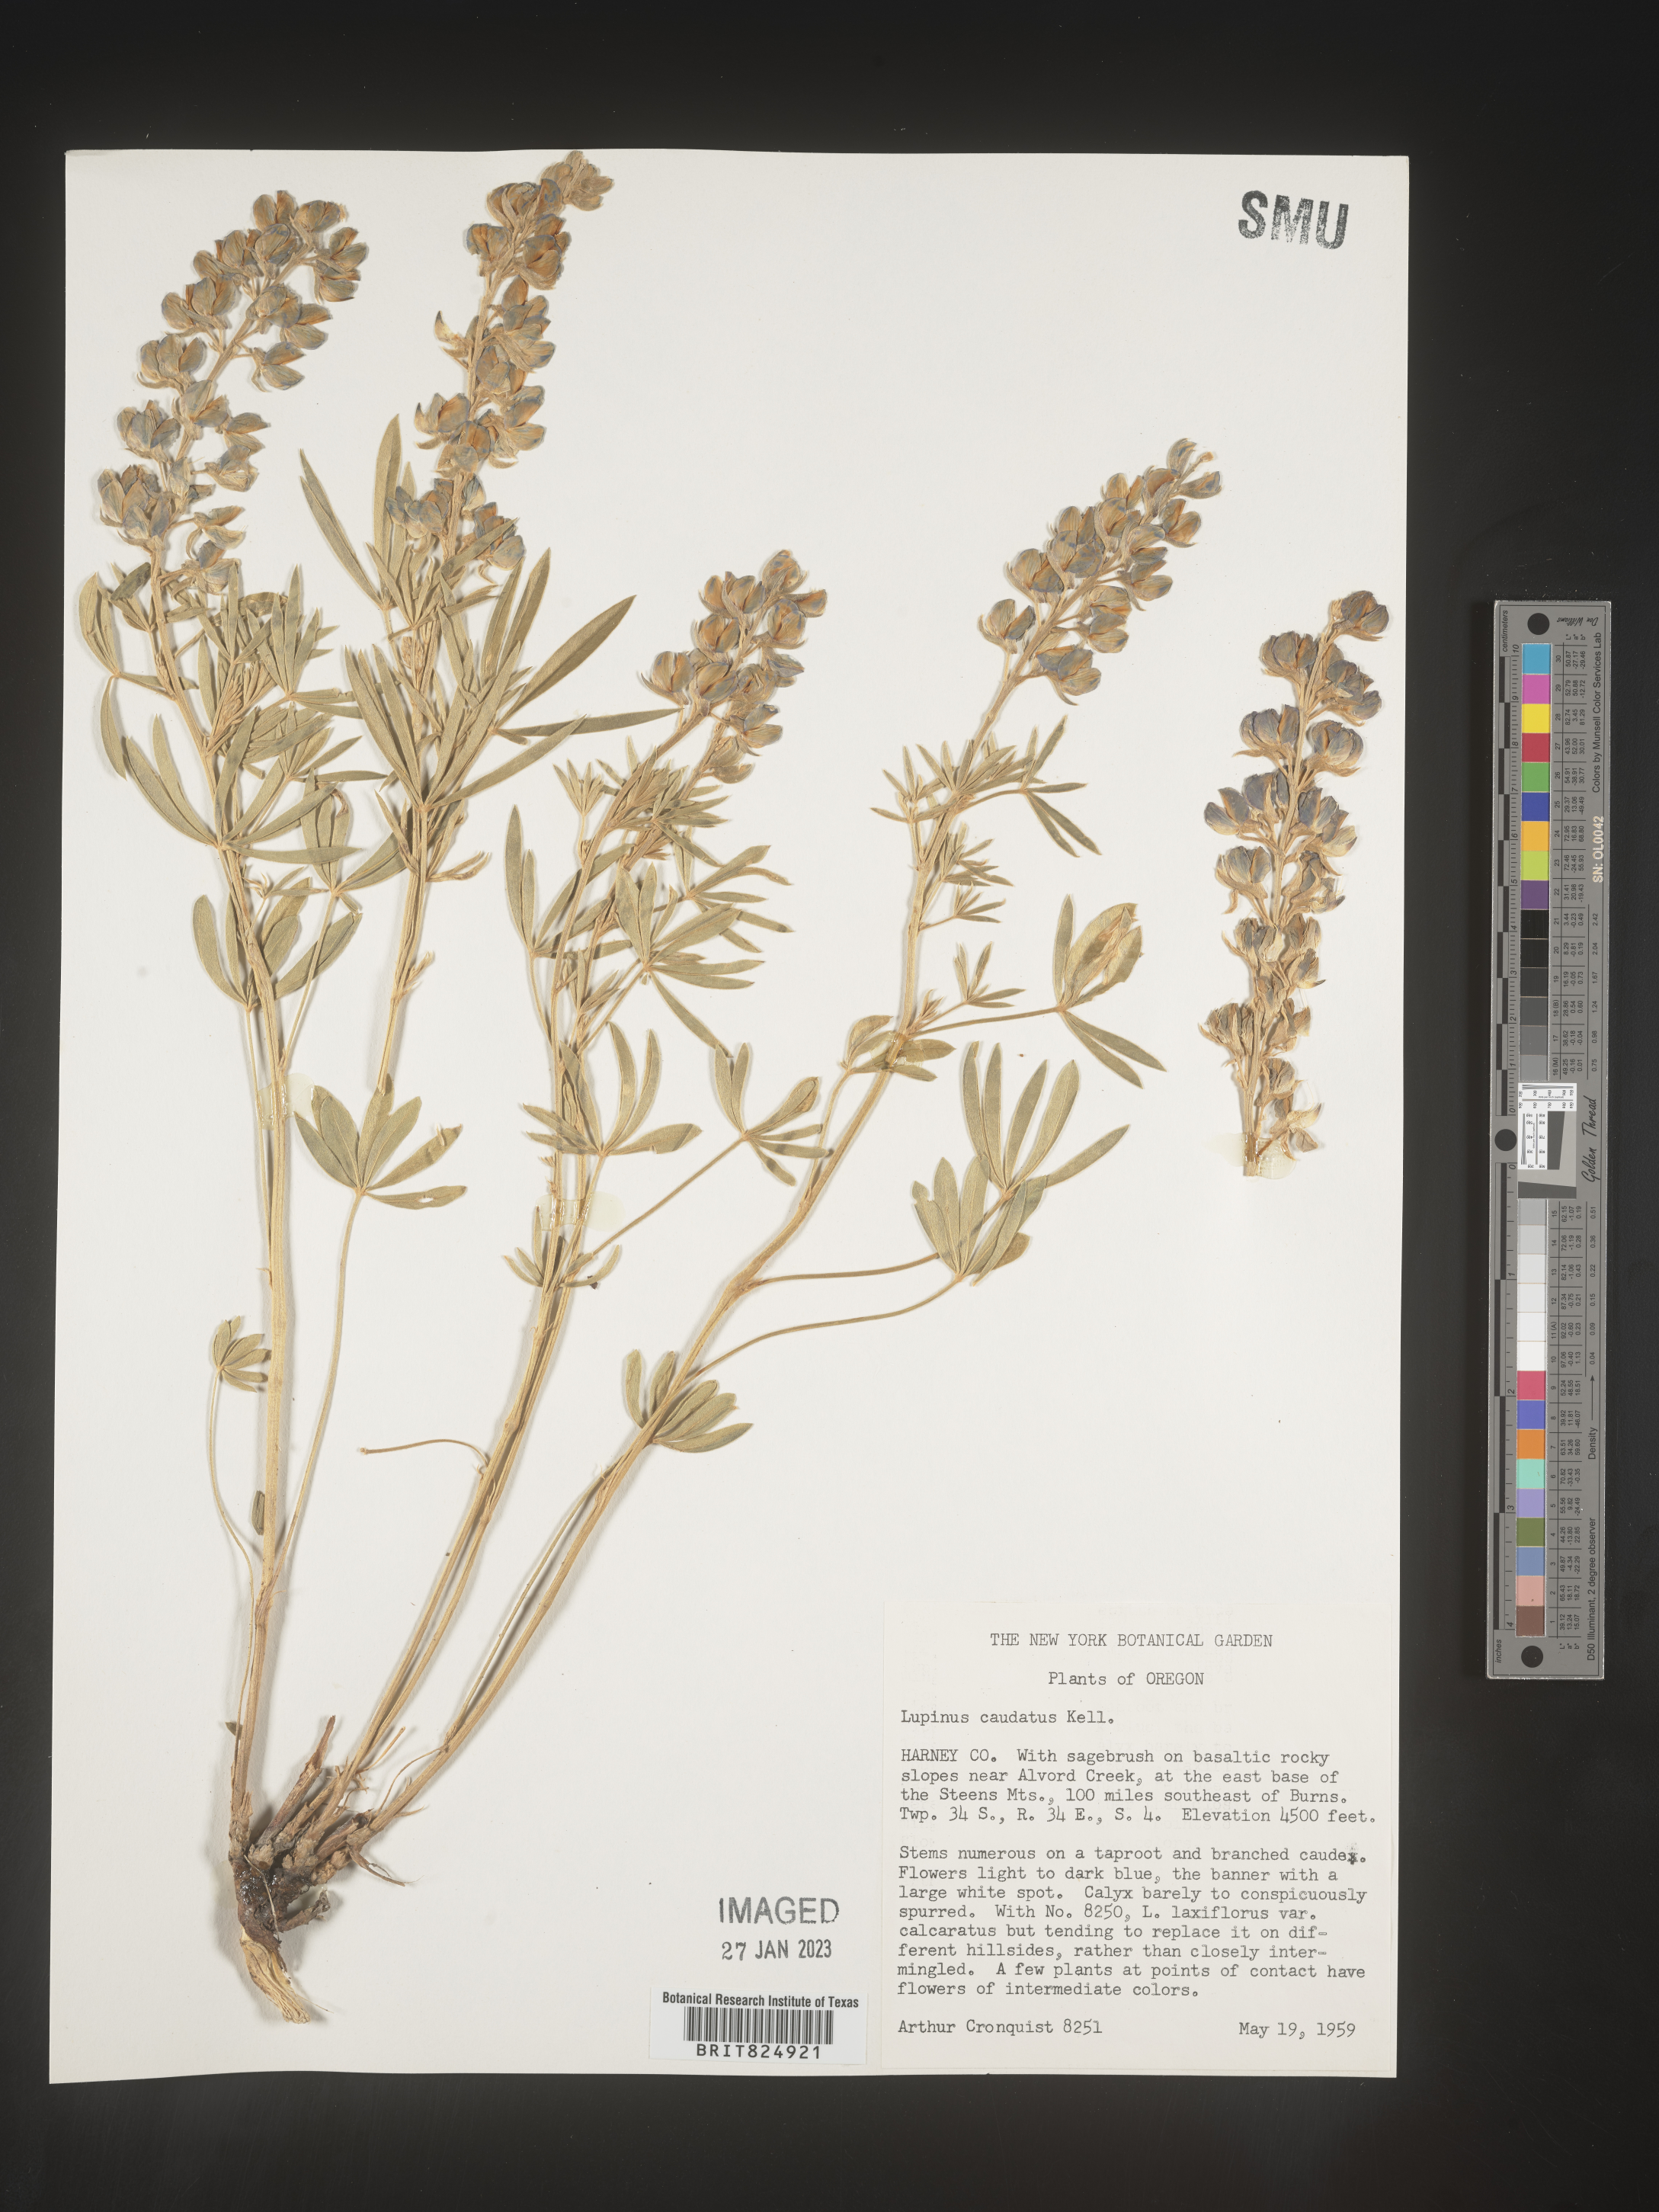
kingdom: Plantae
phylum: Tracheophyta
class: Magnoliopsida
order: Fabales
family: Fabaceae
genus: Lupinus
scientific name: Lupinus caudatus
